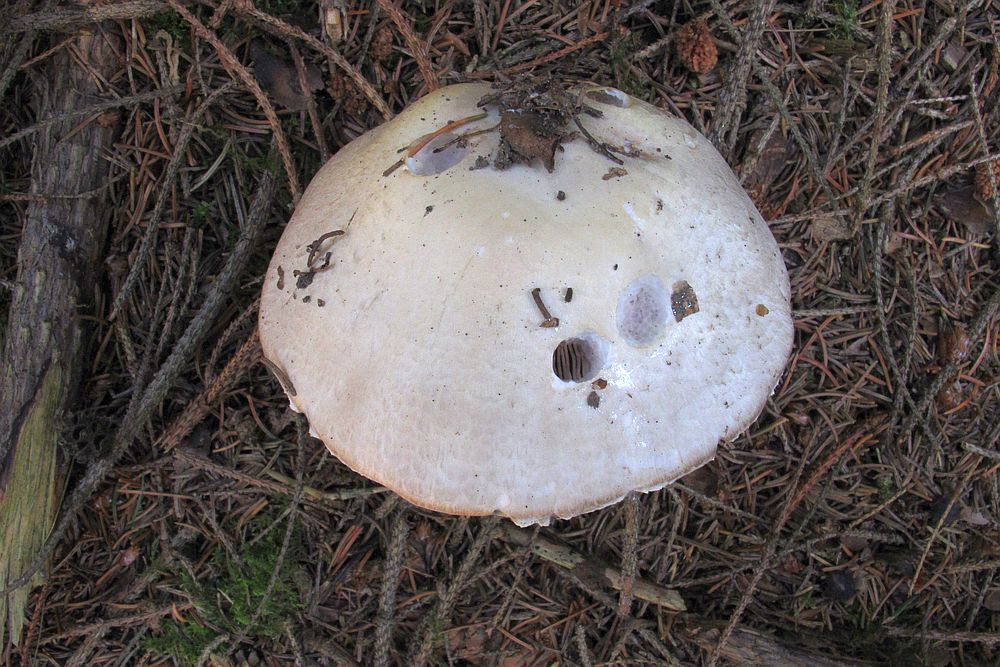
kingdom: Fungi
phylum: Basidiomycota
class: Agaricomycetes
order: Agaricales
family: Agaricaceae
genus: Agaricus
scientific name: Agaricus
